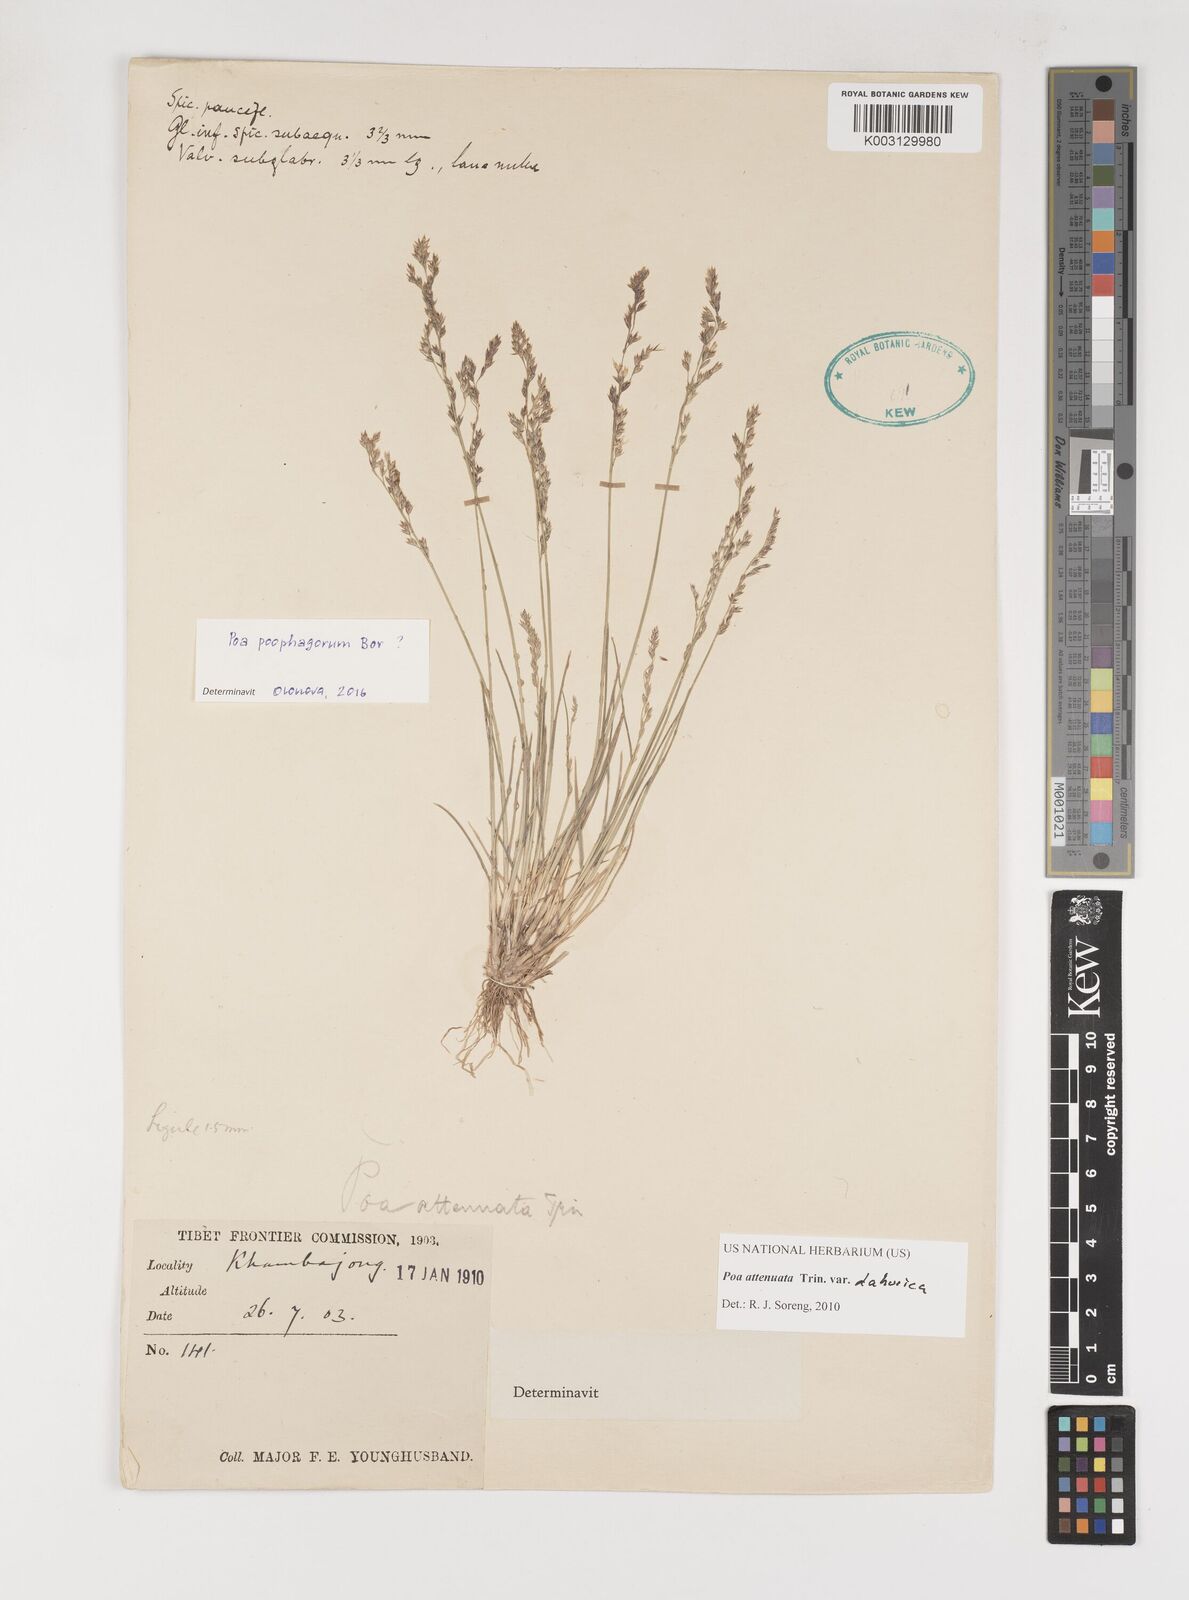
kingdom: Plantae
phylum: Tracheophyta
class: Liliopsida
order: Poales
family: Poaceae
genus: Poa
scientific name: Poa attenuata
